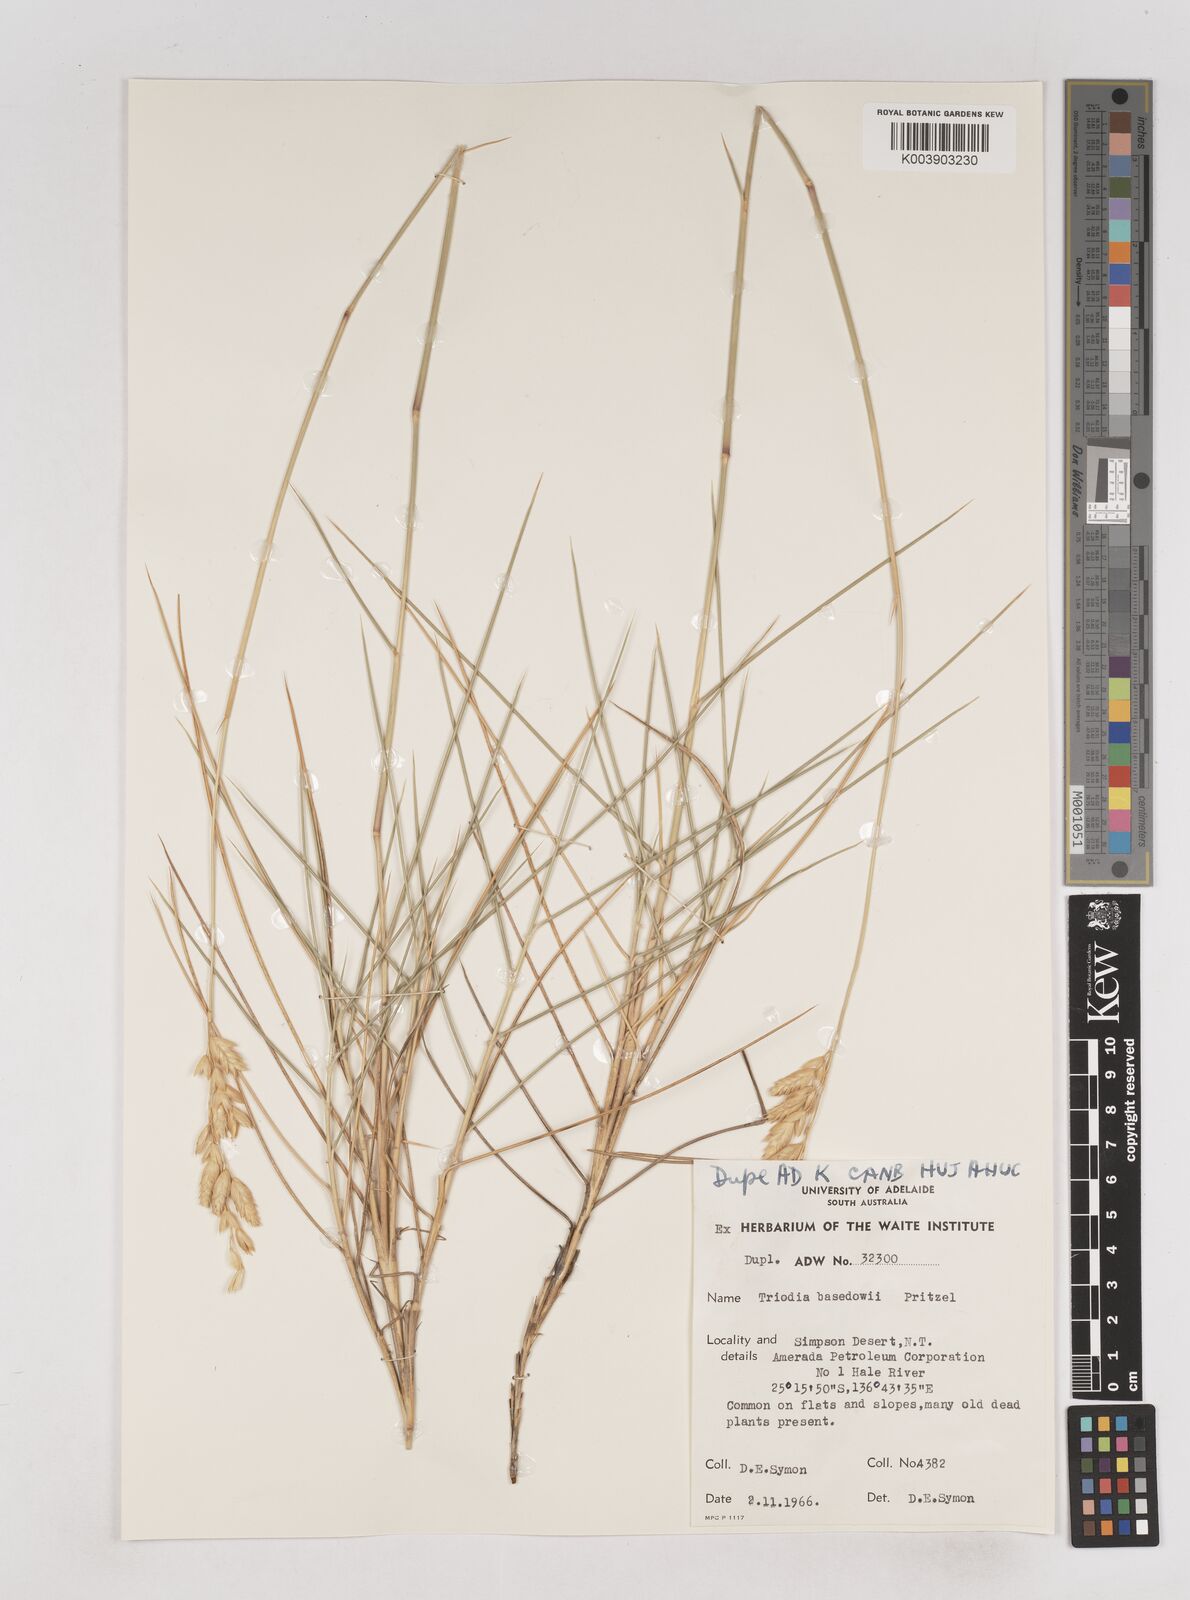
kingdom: Plantae
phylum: Tracheophyta
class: Liliopsida
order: Poales
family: Poaceae
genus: Triodia
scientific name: Triodia basedowii
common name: Hard spinifex
